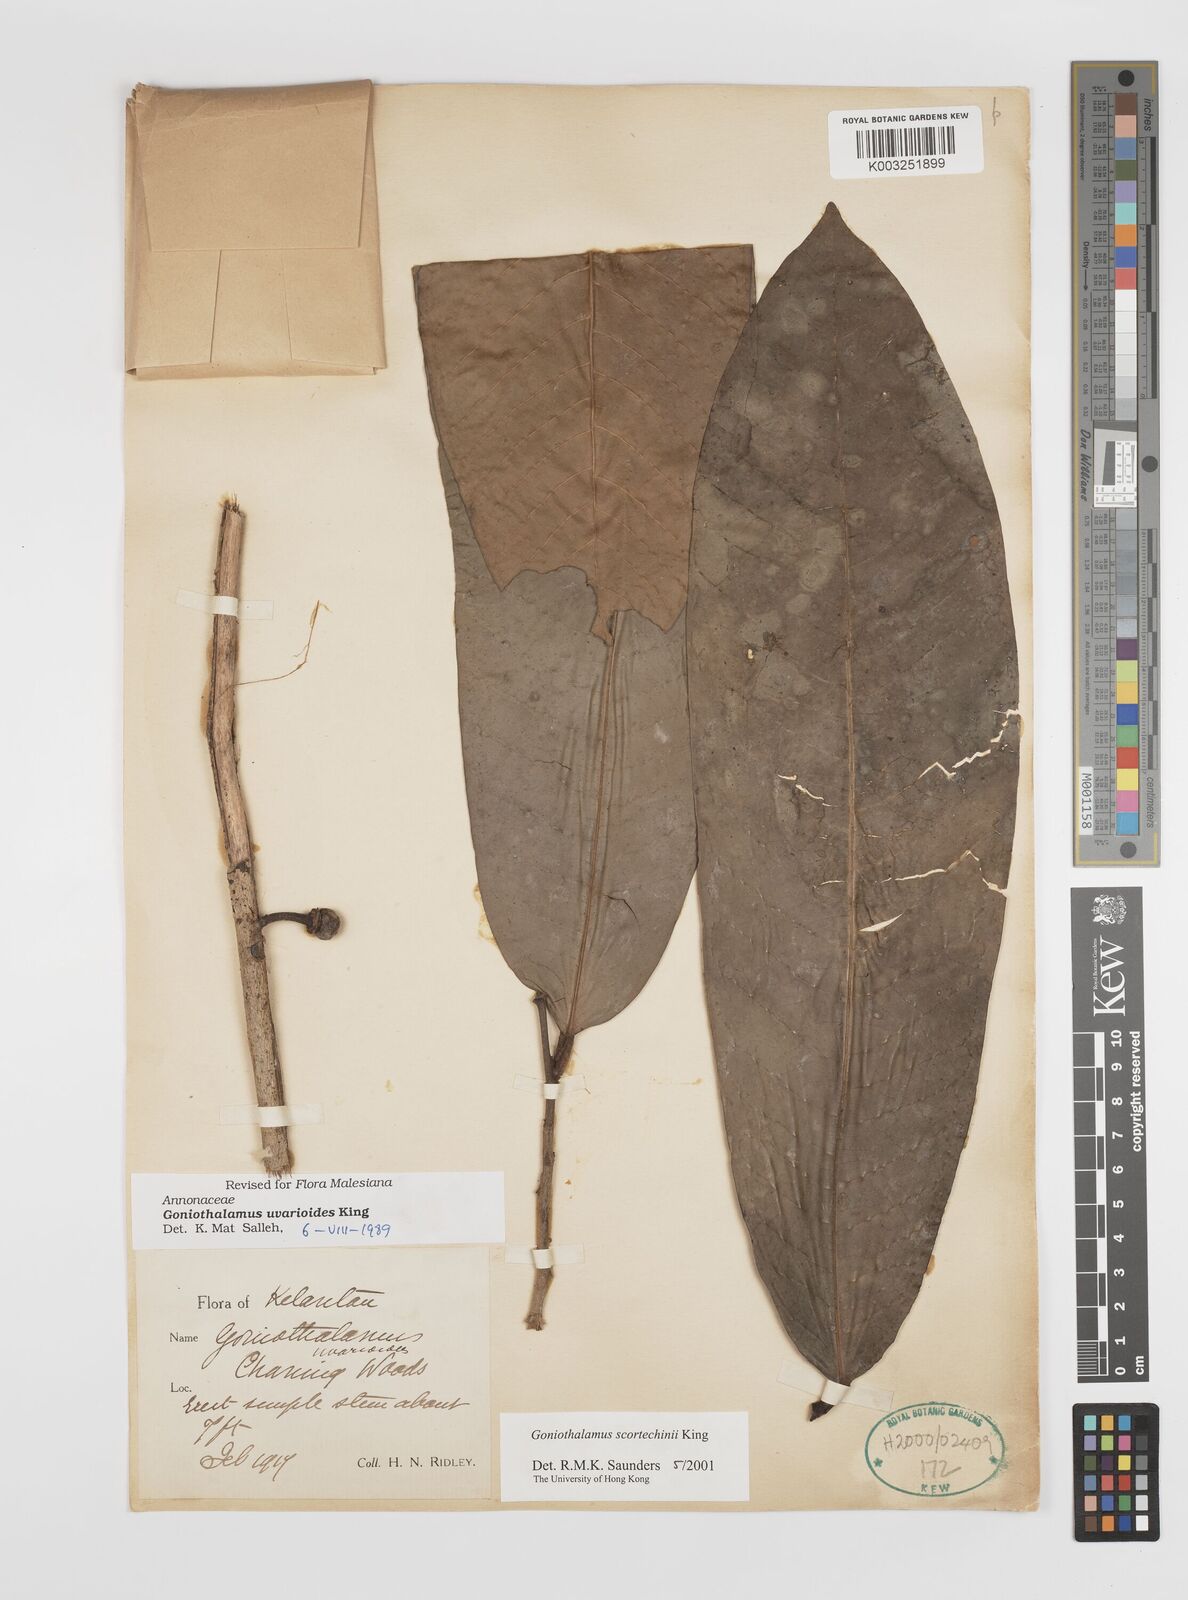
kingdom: Plantae
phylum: Tracheophyta
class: Magnoliopsida
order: Magnoliales
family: Annonaceae
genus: Goniothalamus
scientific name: Goniothalamus scortechinii
